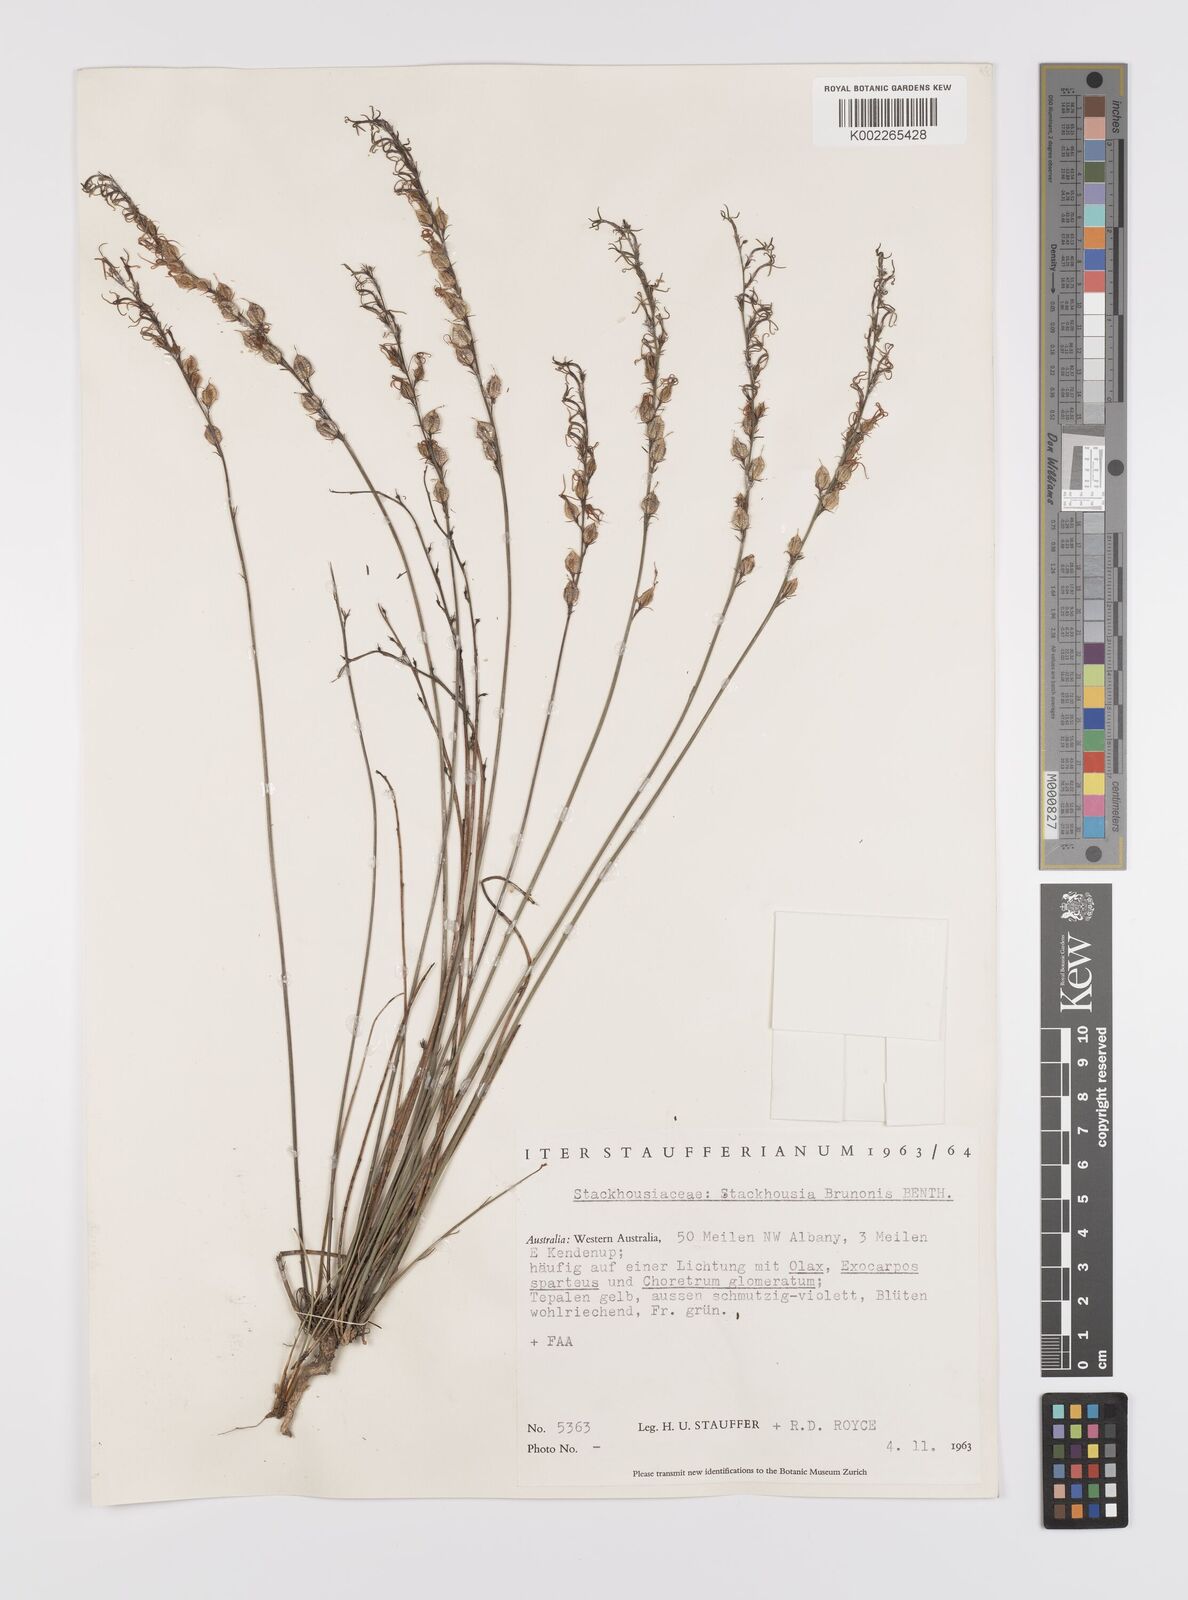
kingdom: Plantae
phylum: Tracheophyta
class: Magnoliopsida
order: Celastrales
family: Celastraceae
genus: Tripterococcus
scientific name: Tripterococcus brunonis
